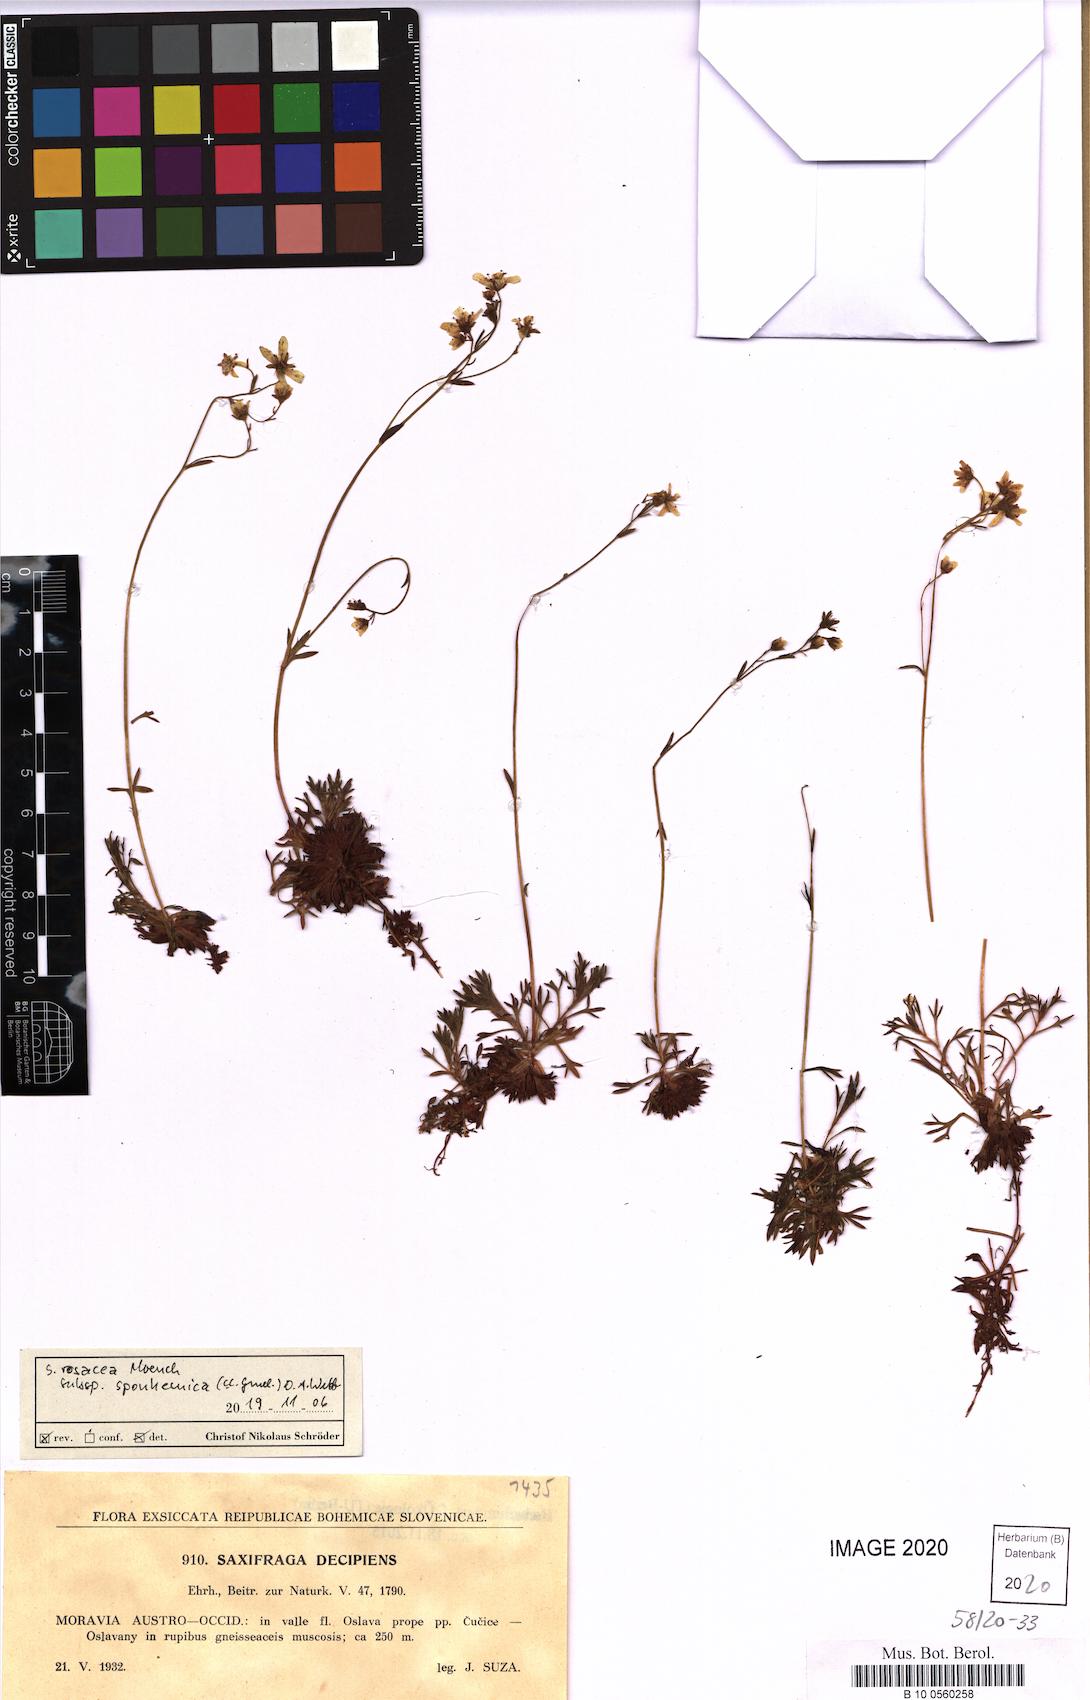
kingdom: Plantae
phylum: Tracheophyta
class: Magnoliopsida
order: Saxifragales
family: Saxifragaceae
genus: Saxifraga
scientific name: Saxifraga rosacea
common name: Irish saxifrage
